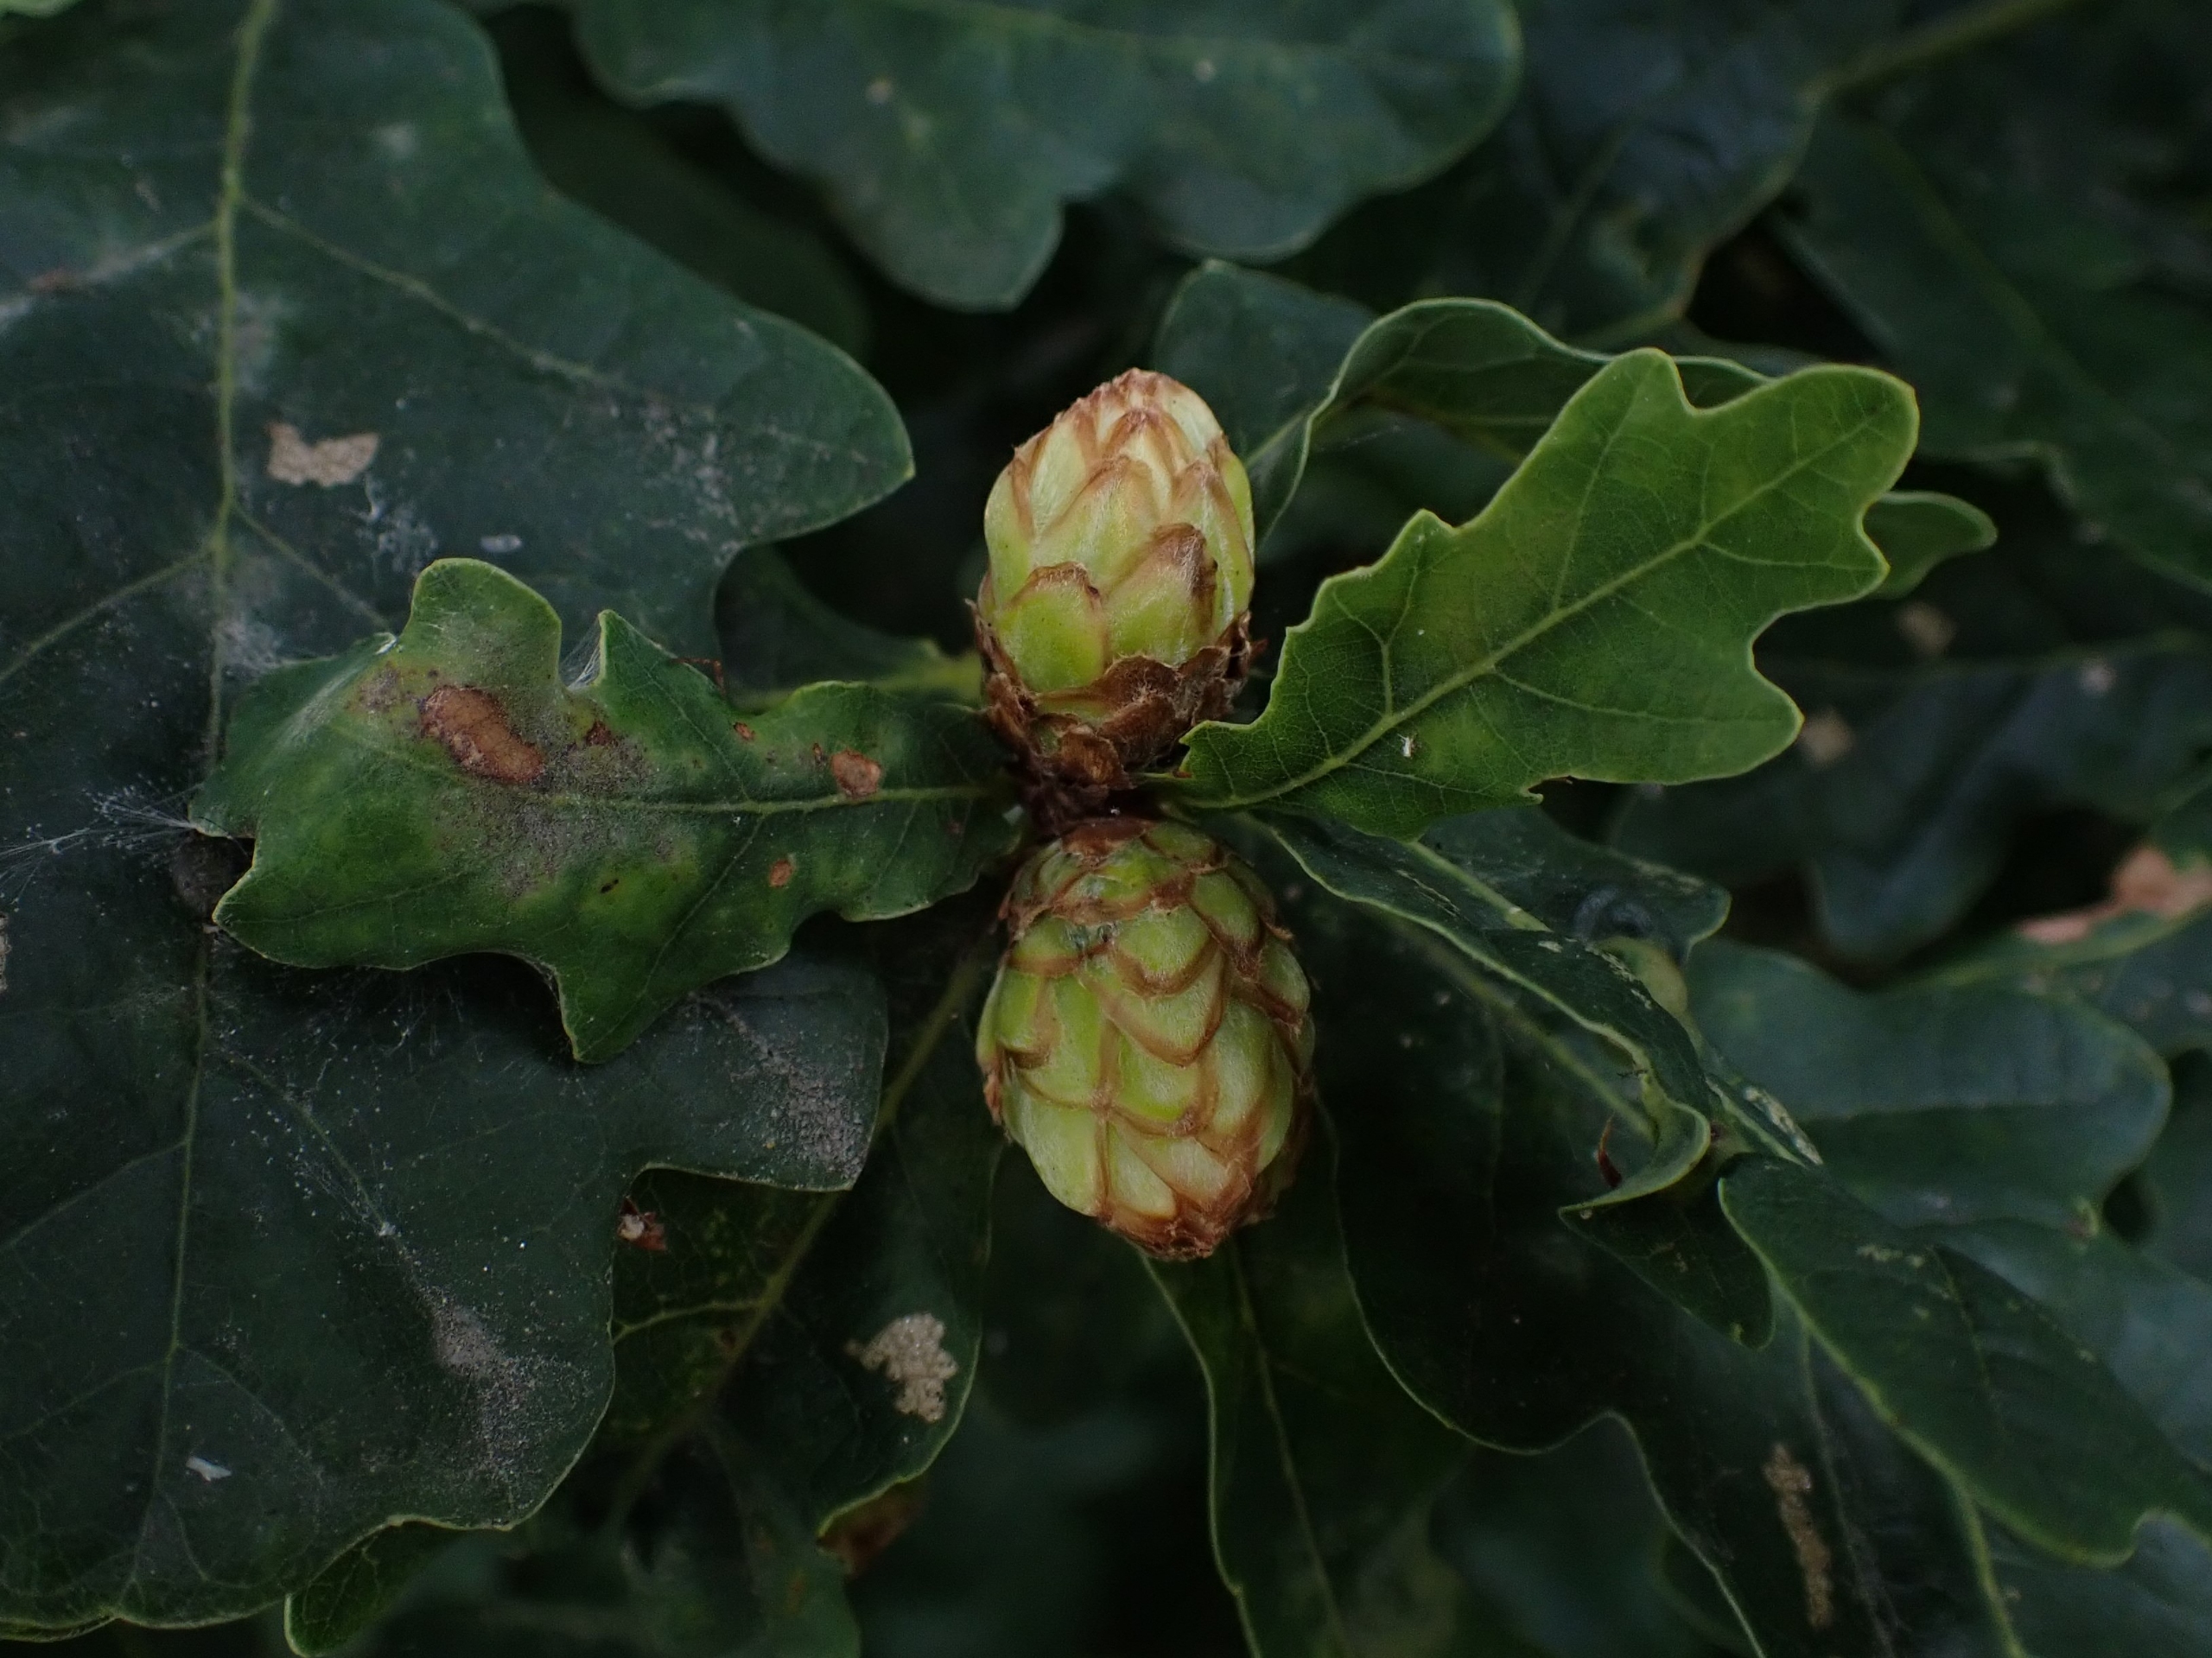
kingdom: Animalia
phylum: Arthropoda
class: Insecta
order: Hymenoptera
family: Cynipidae
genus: Andricus
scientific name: Andricus foecundatrix
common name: Artiskokgalhveps
